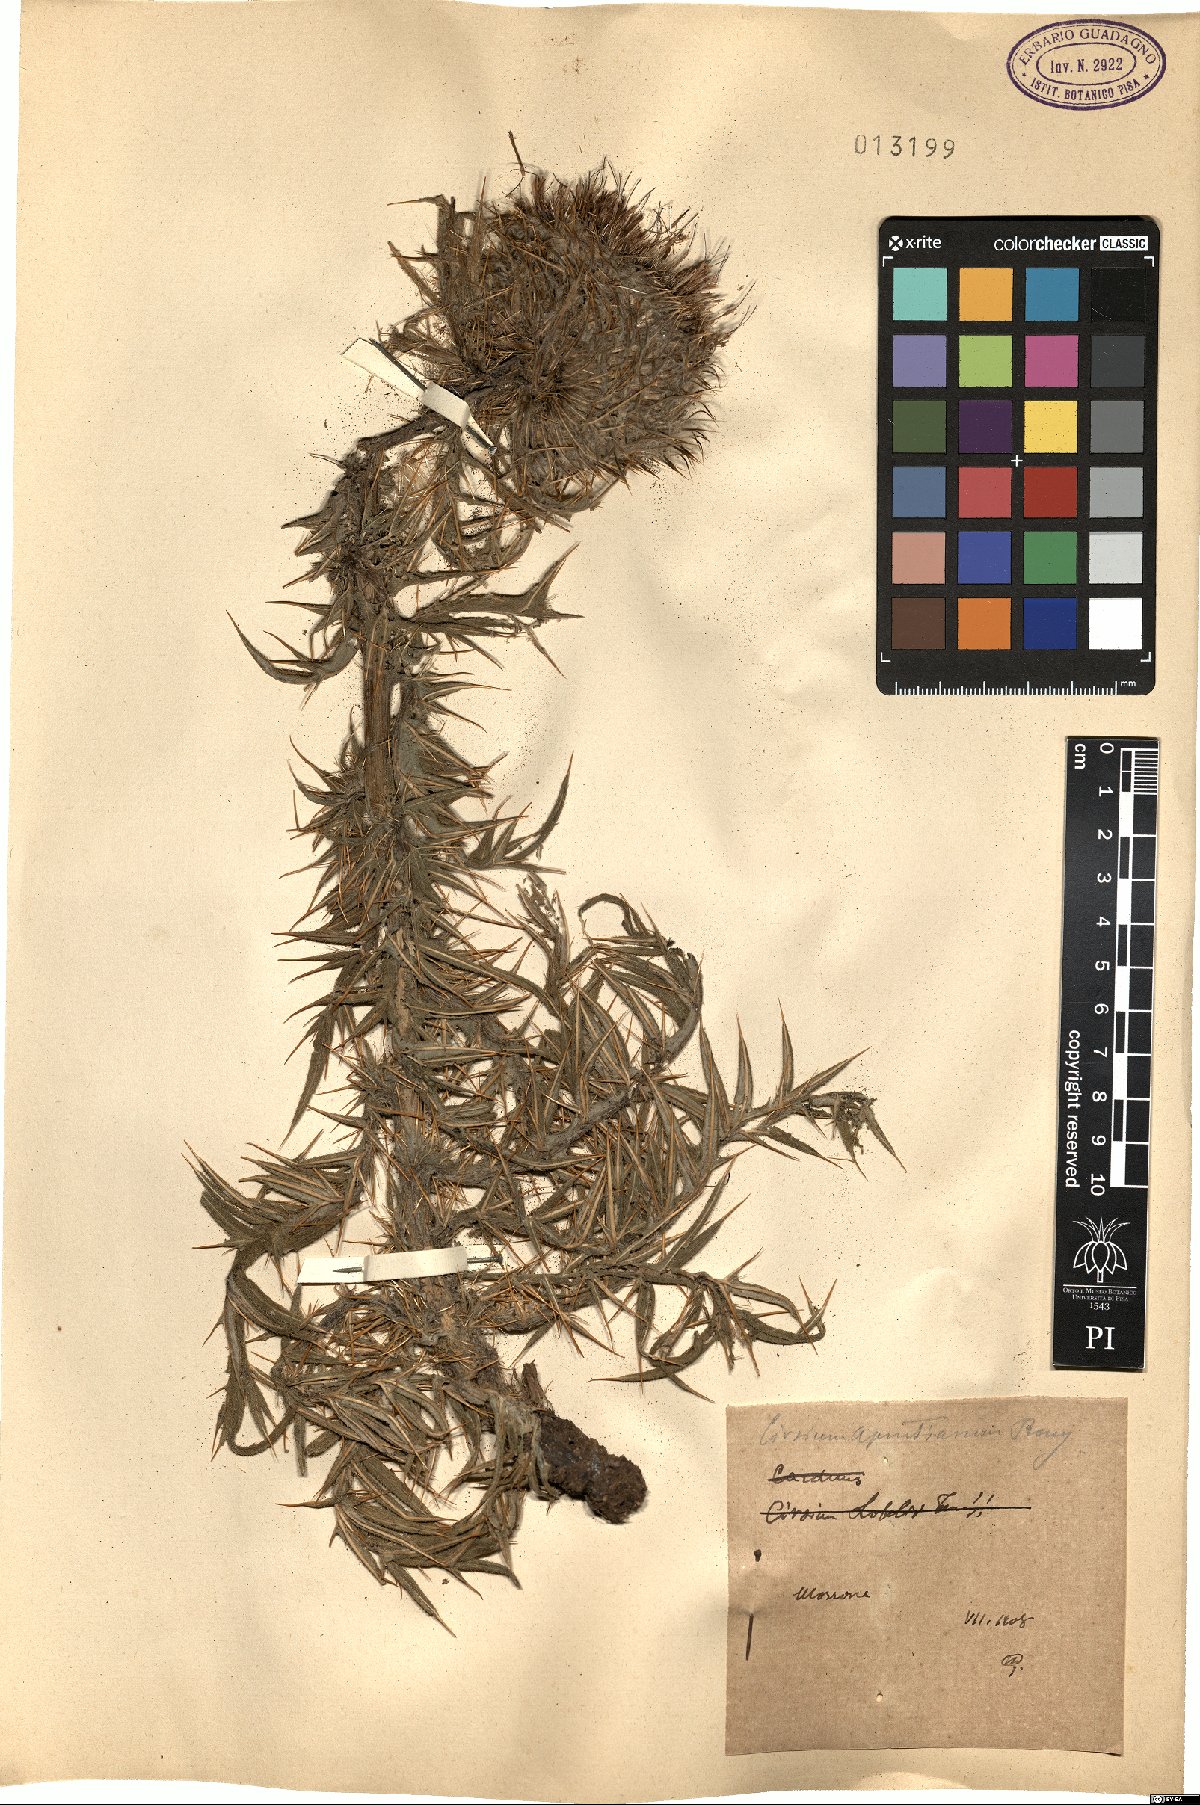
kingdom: Plantae
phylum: Tracheophyta
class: Magnoliopsida
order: Asterales
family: Asteraceae
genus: Lophiolepis
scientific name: Lophiolepis lobelii
